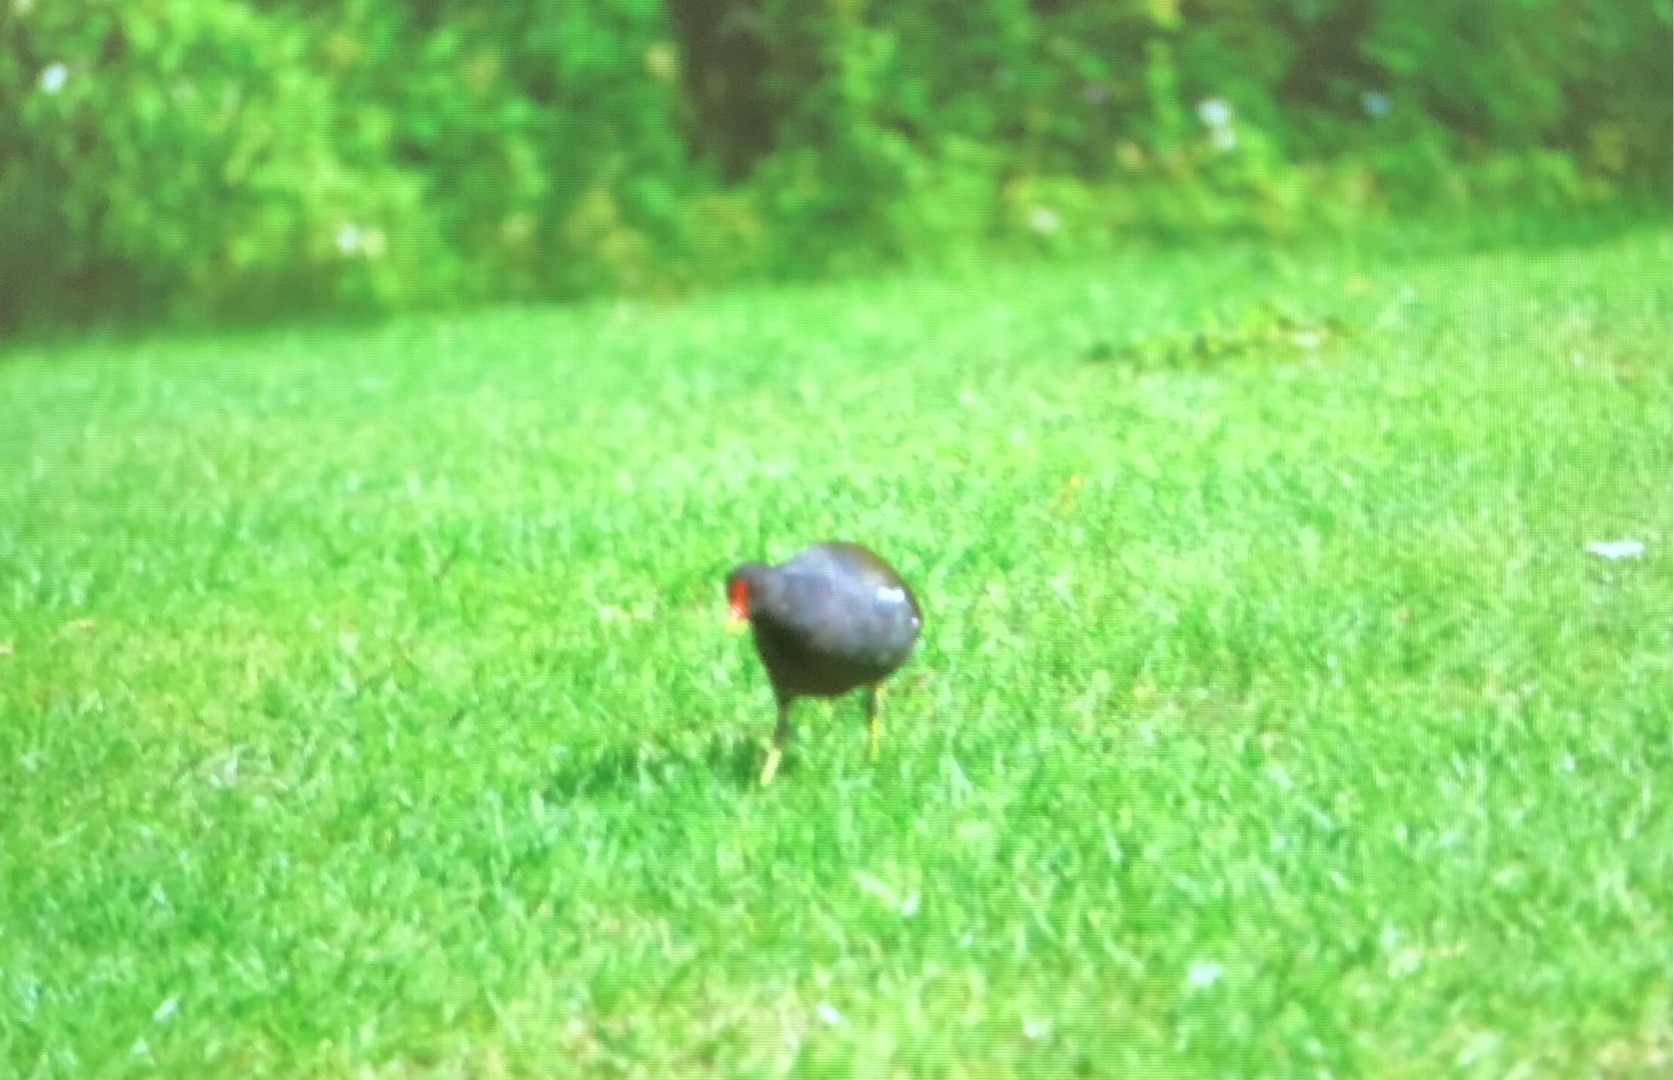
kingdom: Animalia
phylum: Chordata
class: Aves
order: Gruiformes
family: Rallidae
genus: Gallinula
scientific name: Gallinula chloropus
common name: Grønbenet rørhøne
